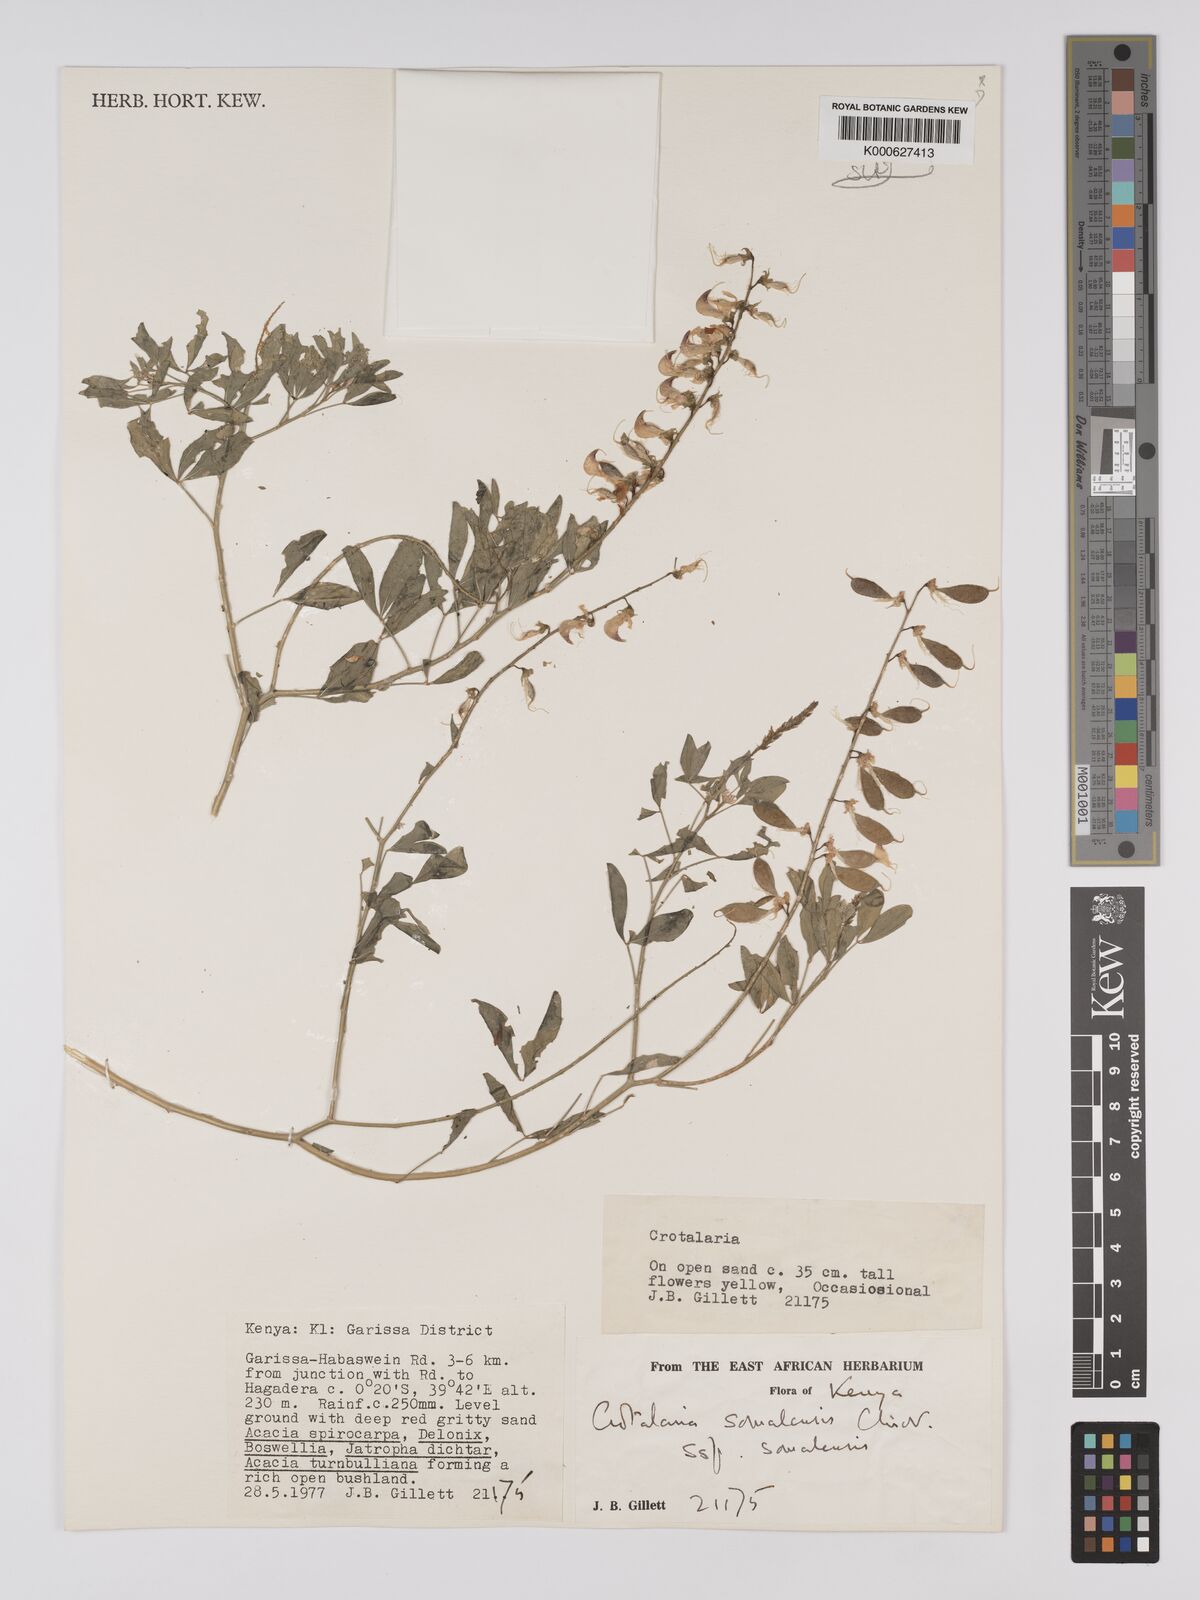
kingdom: Plantae
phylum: Tracheophyta
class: Magnoliopsida
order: Fabales
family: Fabaceae
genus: Crotalaria
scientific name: Crotalaria
